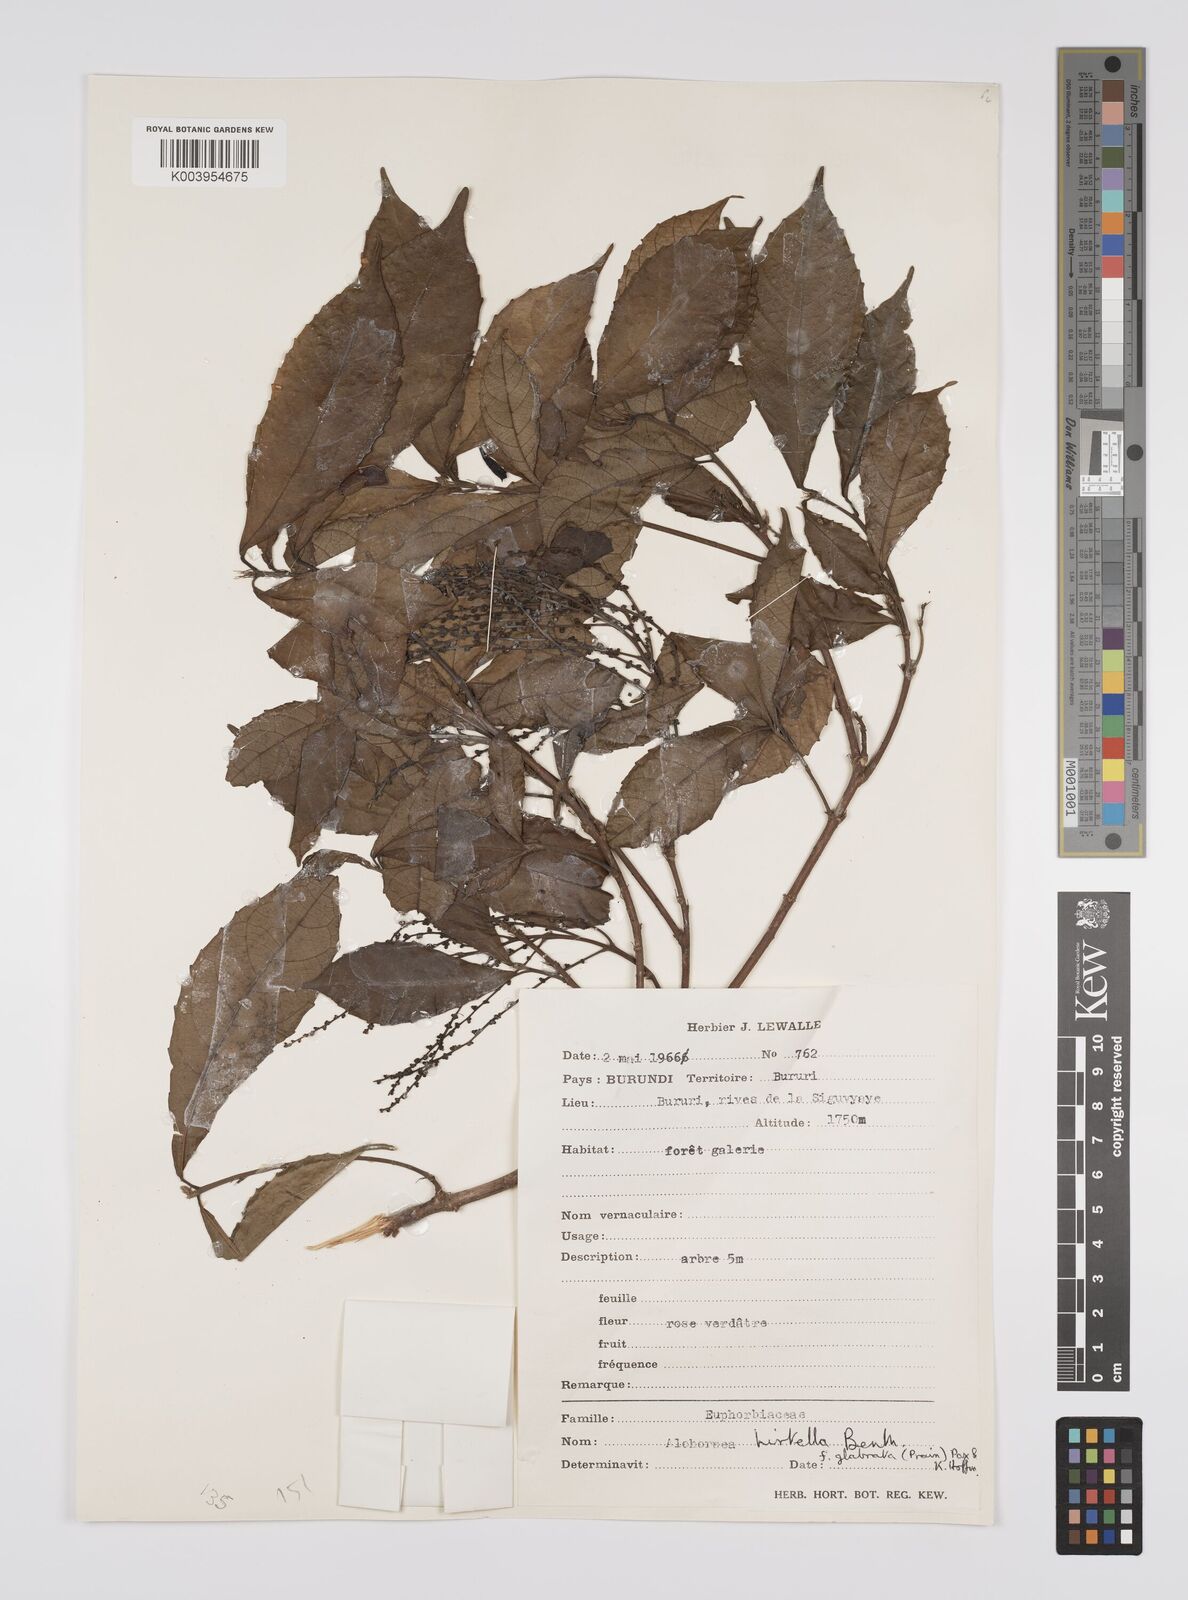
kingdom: Plantae
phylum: Tracheophyta
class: Magnoliopsida
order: Malpighiales
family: Euphorbiaceae
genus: Alchornea
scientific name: Alchornea hirtella
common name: Forest bead-string
